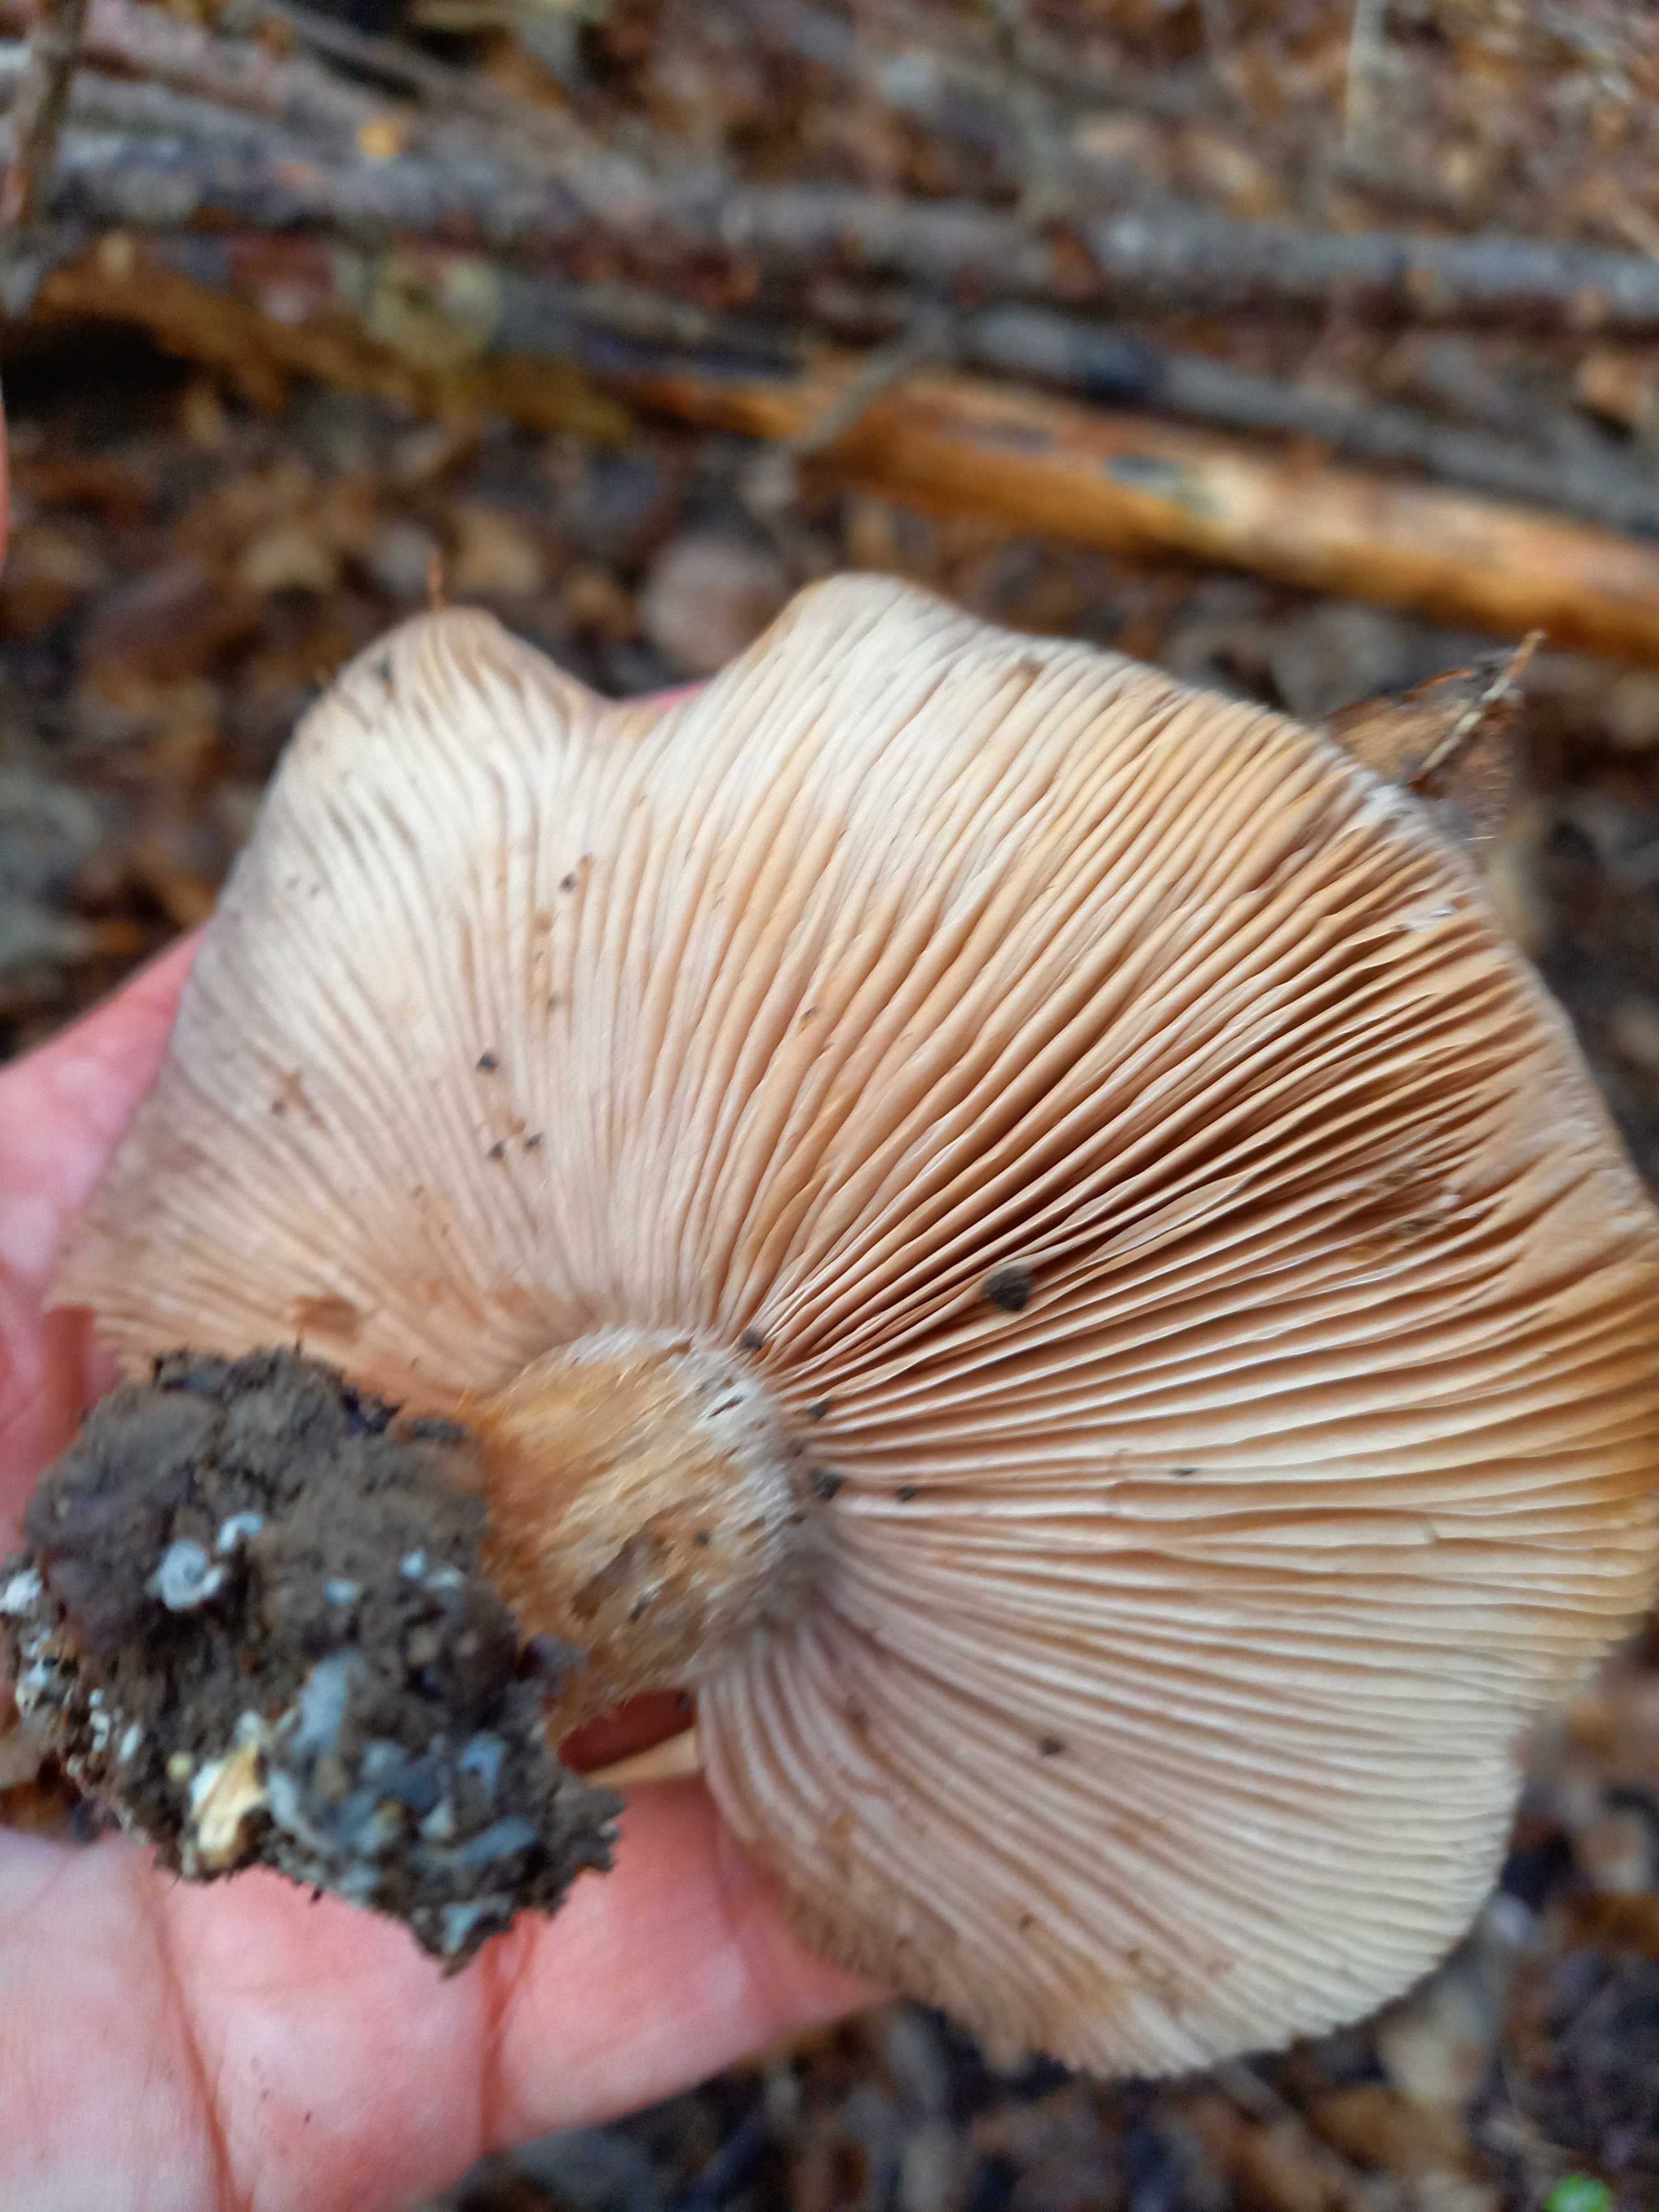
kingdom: Fungi
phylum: Basidiomycota
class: Agaricomycetes
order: Agaricales
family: Tricholomataceae
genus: Lepista
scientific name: Lepista personata
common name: bleg hekseringshat
